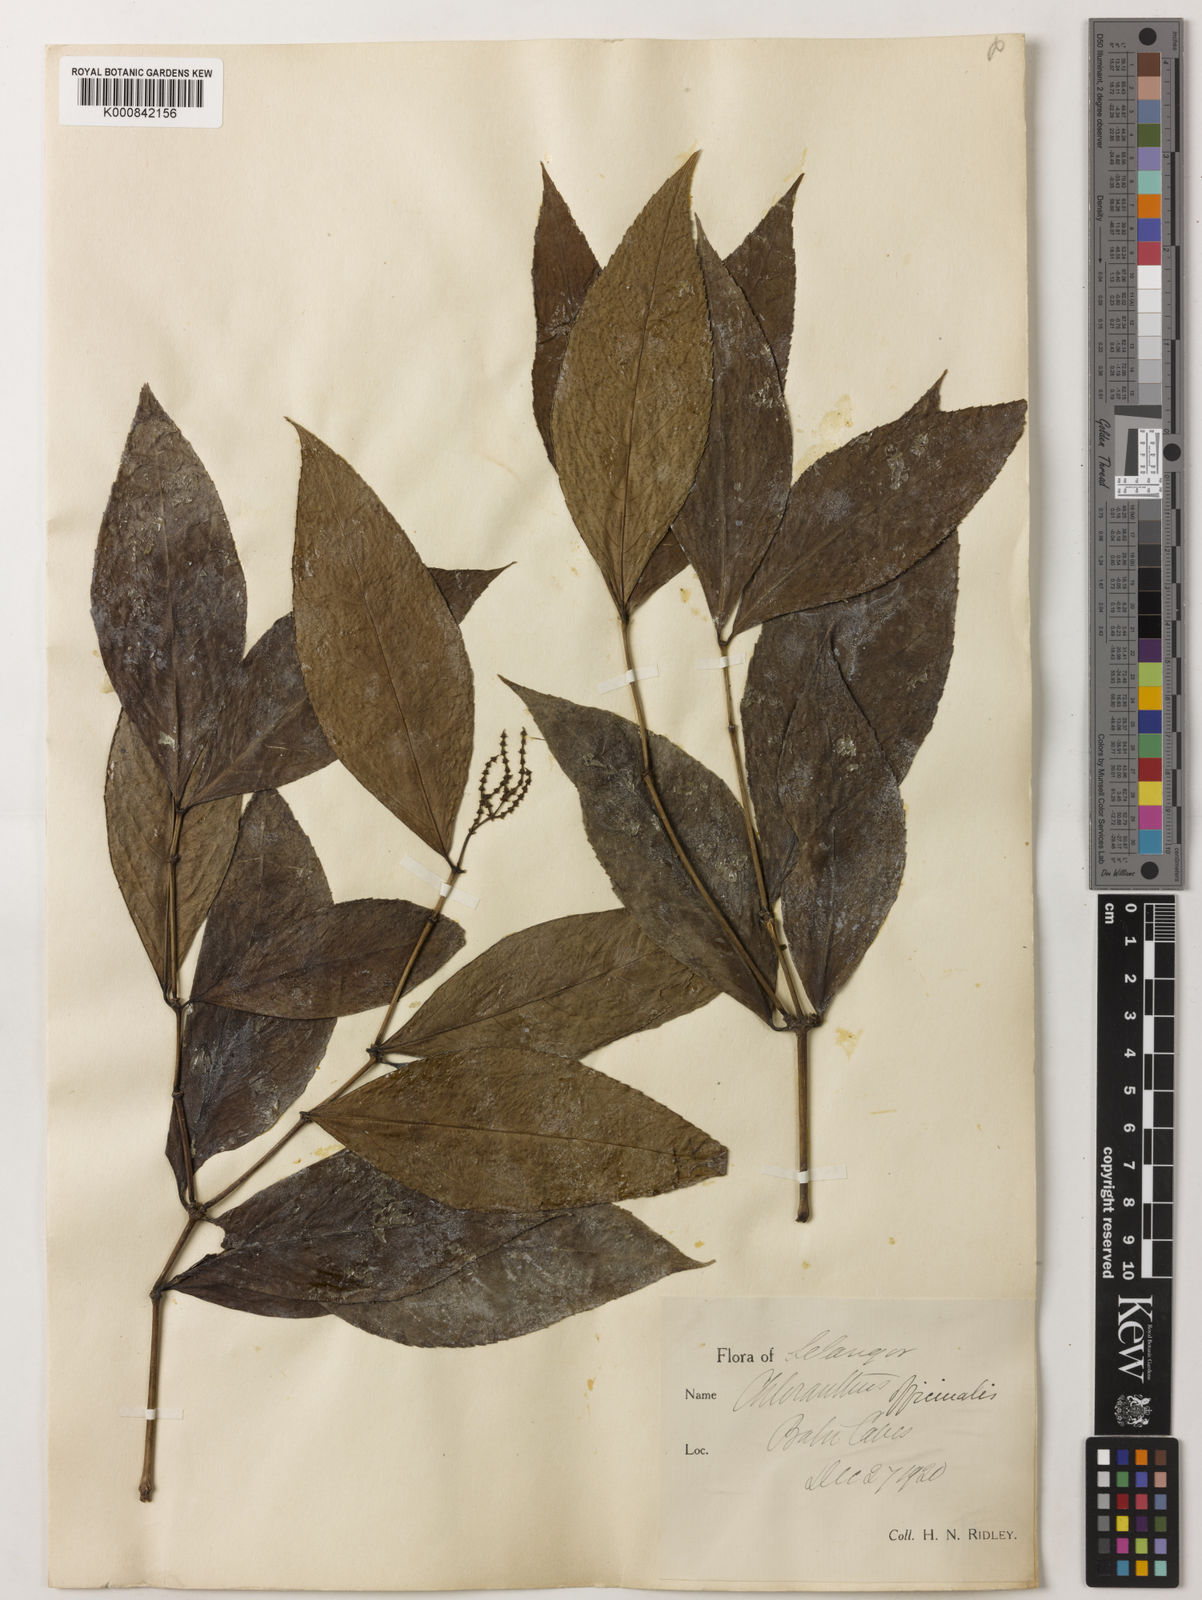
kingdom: Plantae
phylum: Tracheophyta
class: Magnoliopsida
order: Chloranthales
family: Chloranthaceae
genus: Chloranthus
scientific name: Chloranthus
